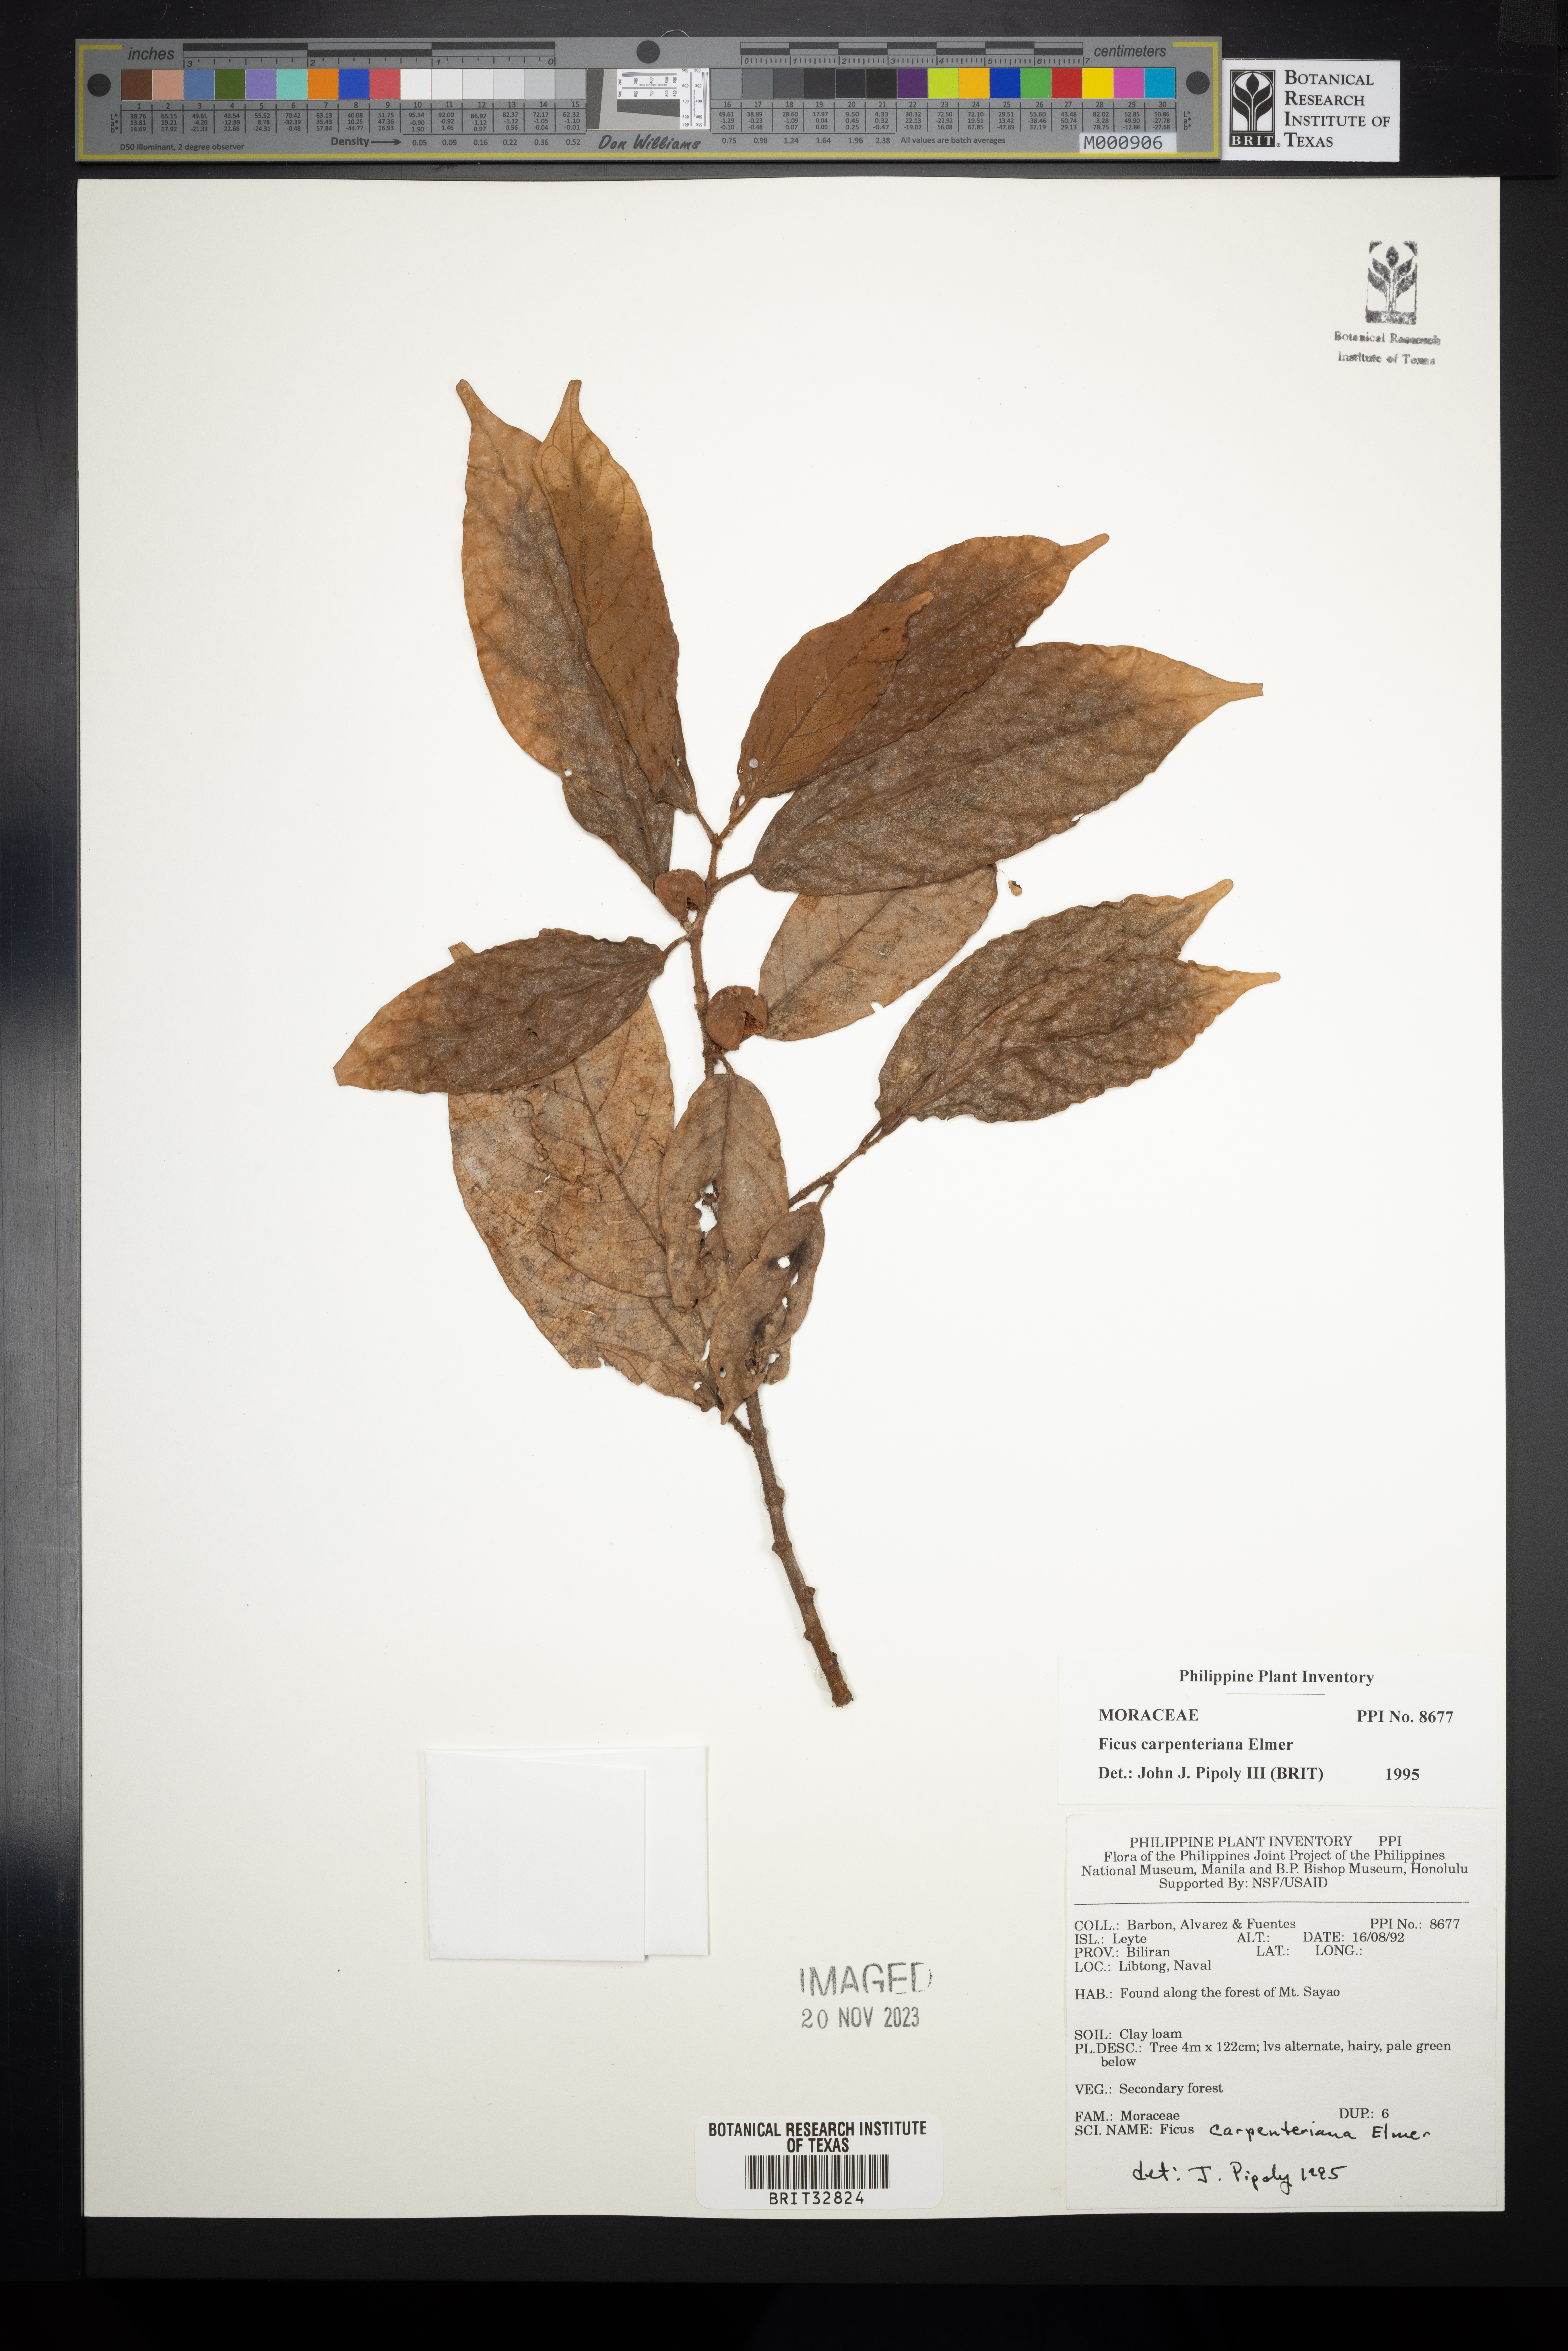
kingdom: Plantae
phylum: Tracheophyta
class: Magnoliopsida
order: Rosales
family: Moraceae
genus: Ficus
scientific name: Ficus carpenteriana
